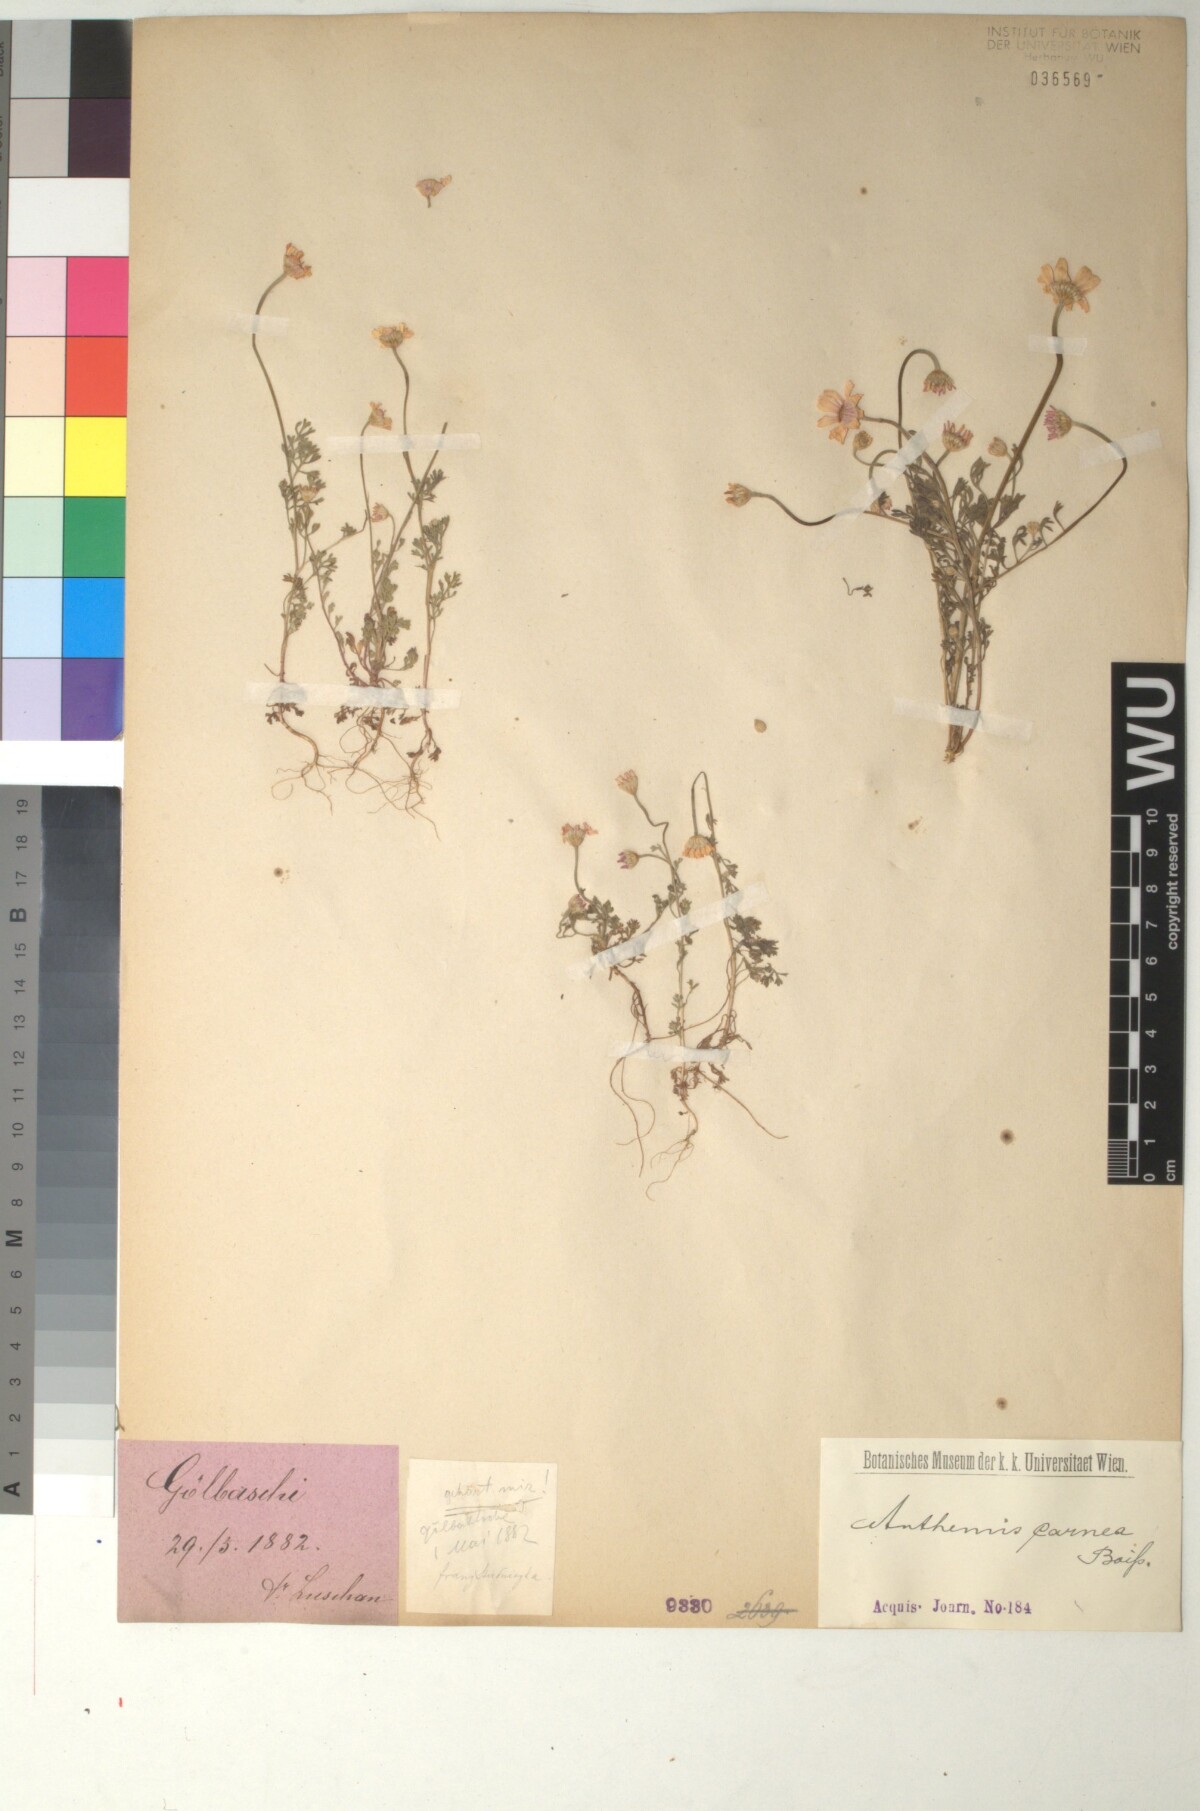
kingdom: Plantae
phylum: Tracheophyta
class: Magnoliopsida
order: Asterales
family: Asteraceae
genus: Anthemis
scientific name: Anthemis rosea
